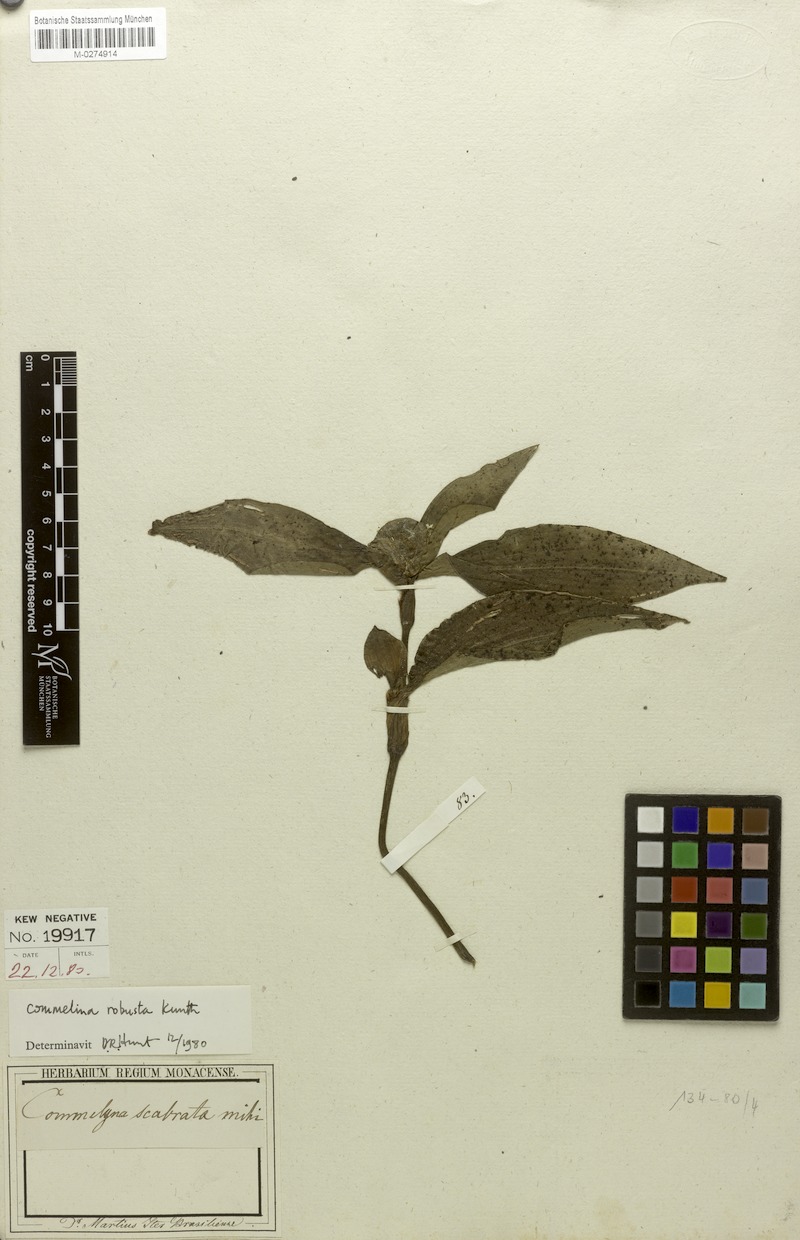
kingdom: Plantae
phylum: Tracheophyta
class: Liliopsida
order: Commelinales
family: Commelinaceae
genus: Commelina
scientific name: Commelina obliqua
